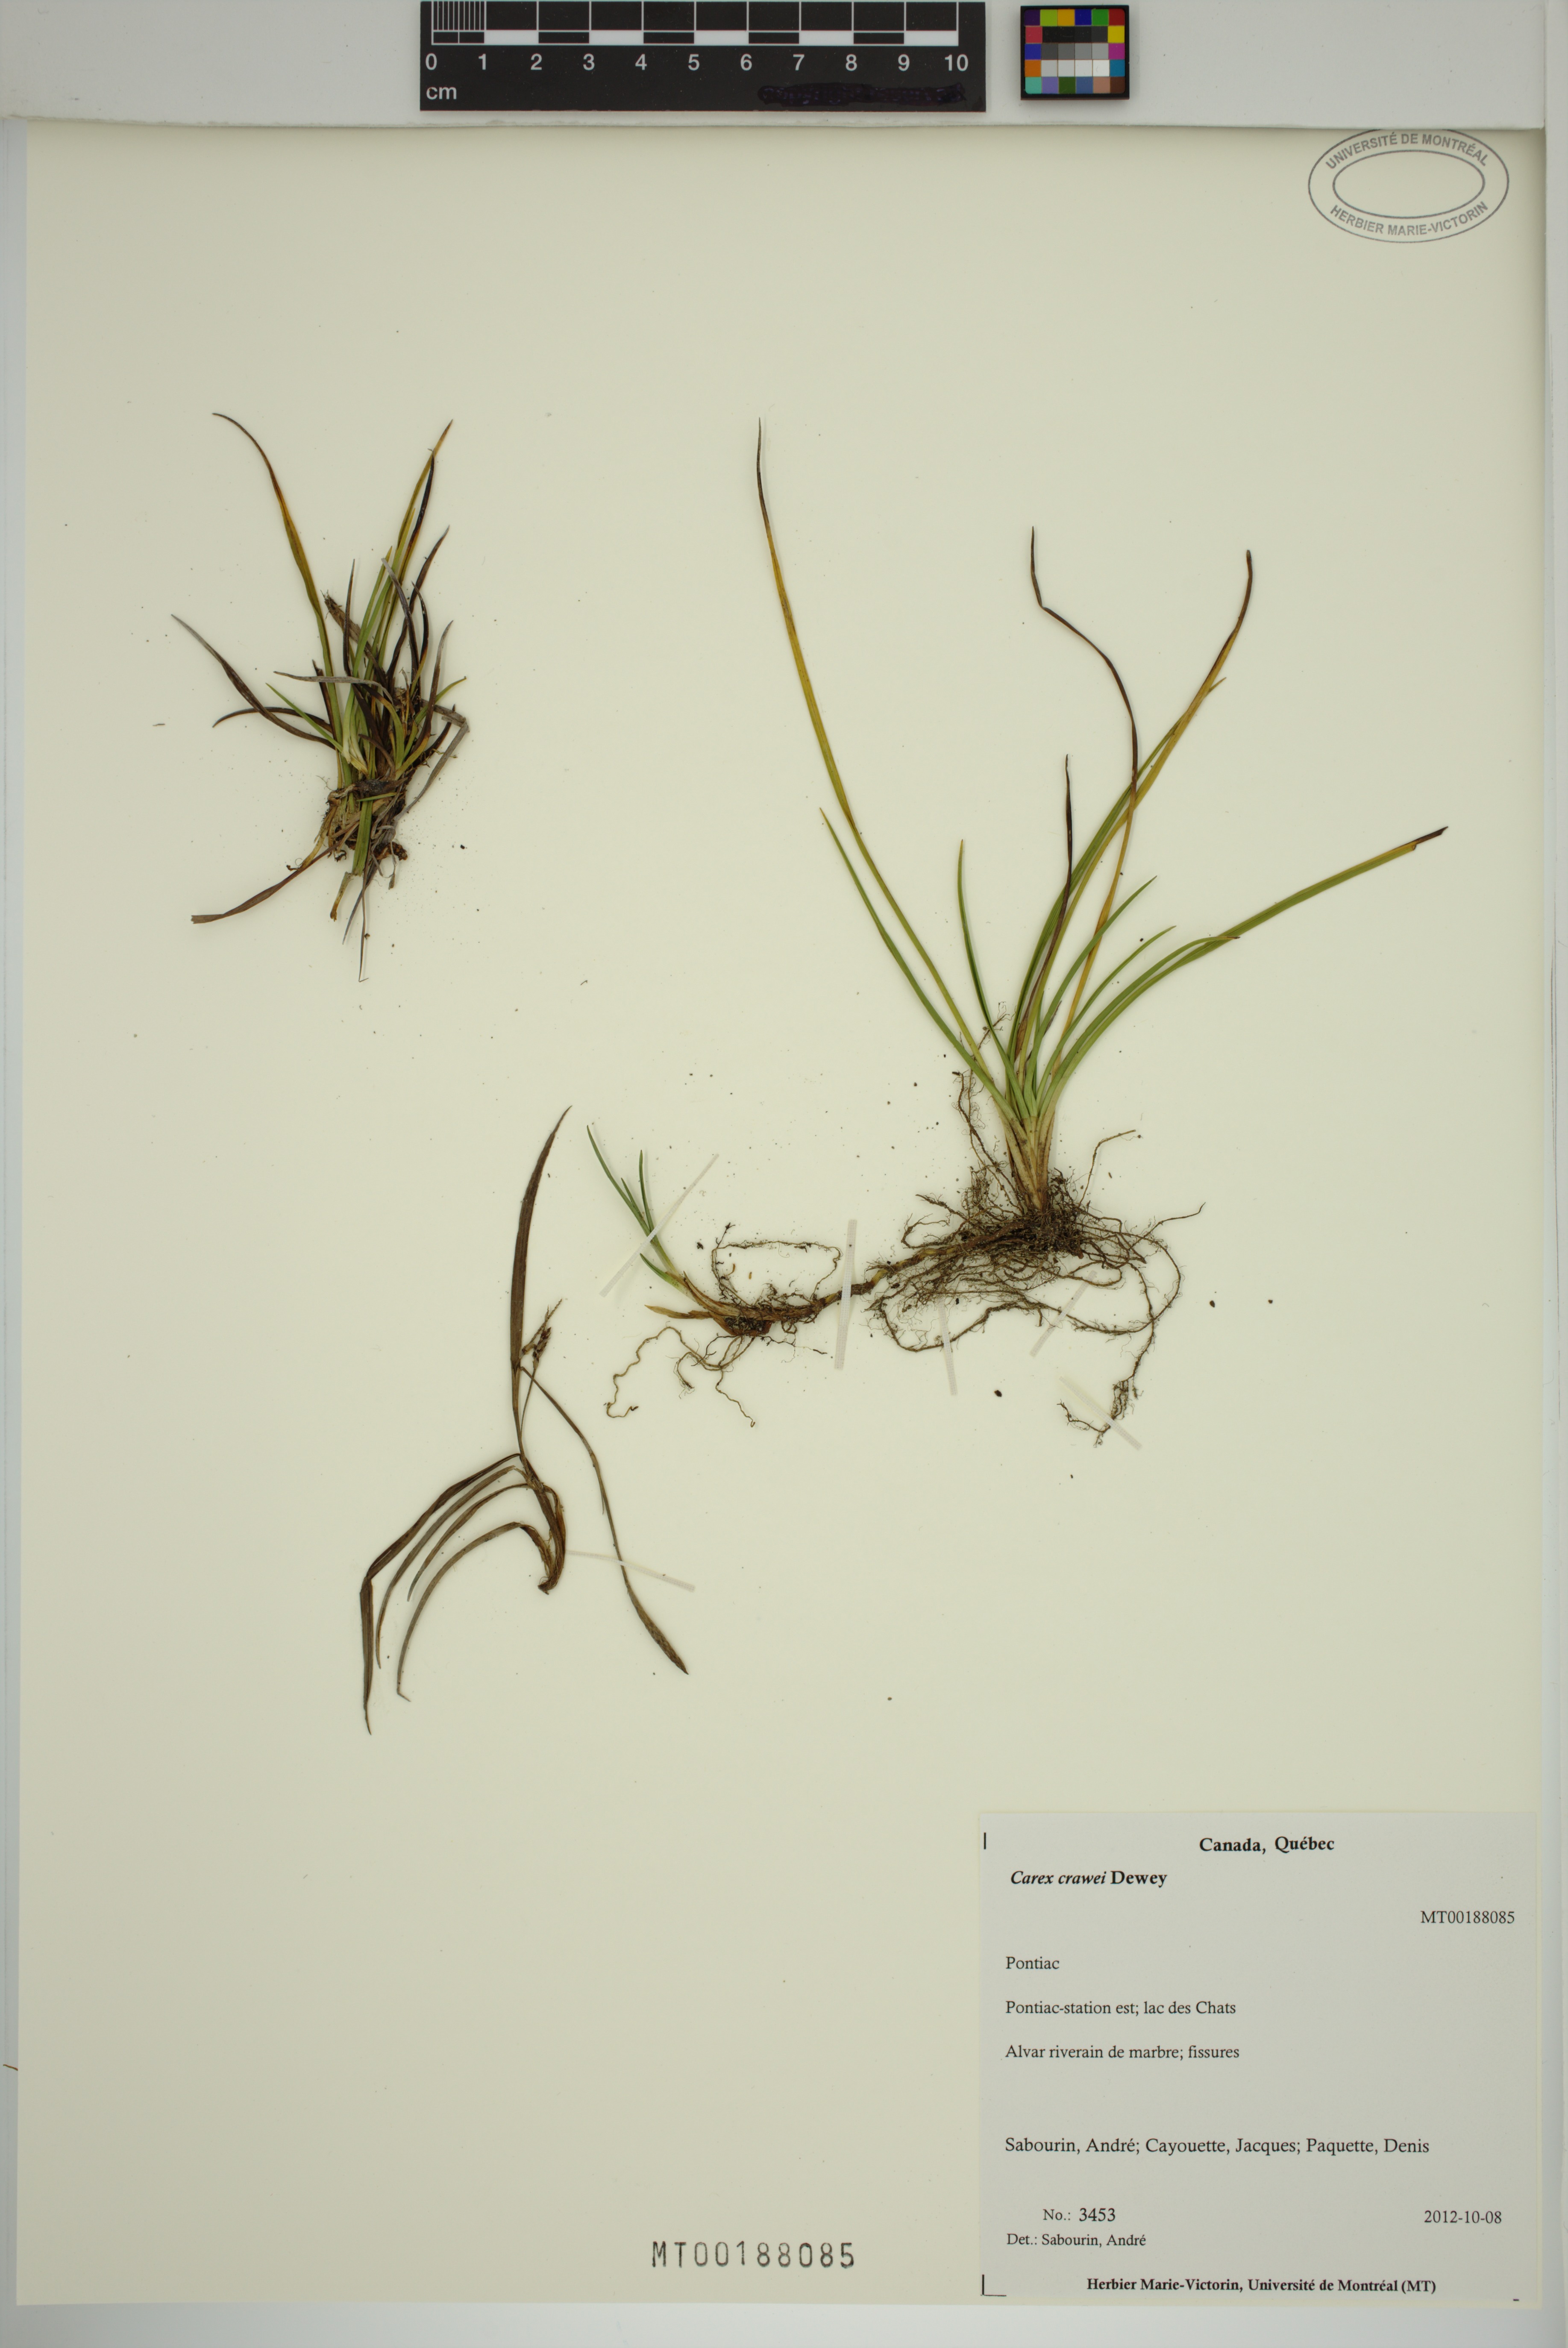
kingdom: Plantae
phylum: Tracheophyta
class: Liliopsida
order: Poales
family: Cyperaceae
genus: Carex
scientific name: Carex crawei
